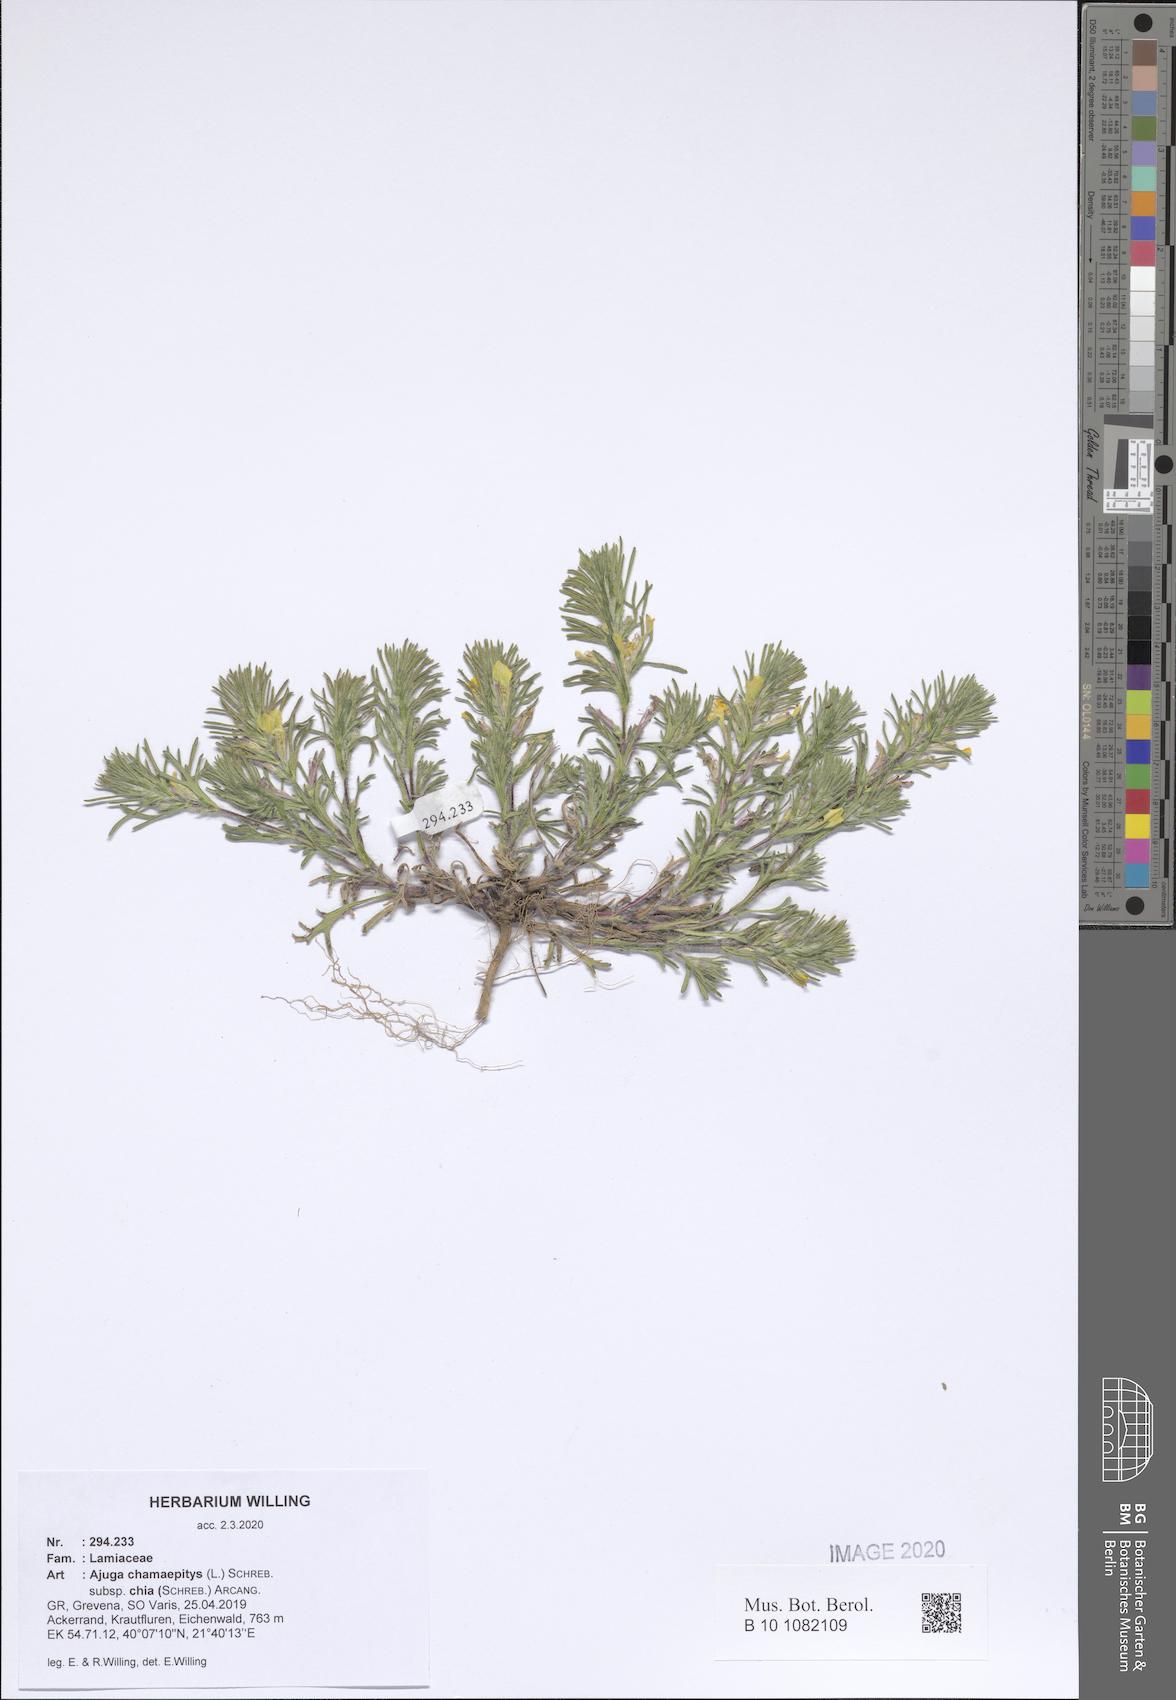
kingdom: Plantae
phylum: Tracheophyta
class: Magnoliopsida
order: Lamiales
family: Lamiaceae
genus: Ajuga
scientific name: Ajuga chamaepitys
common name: Ground-pine
